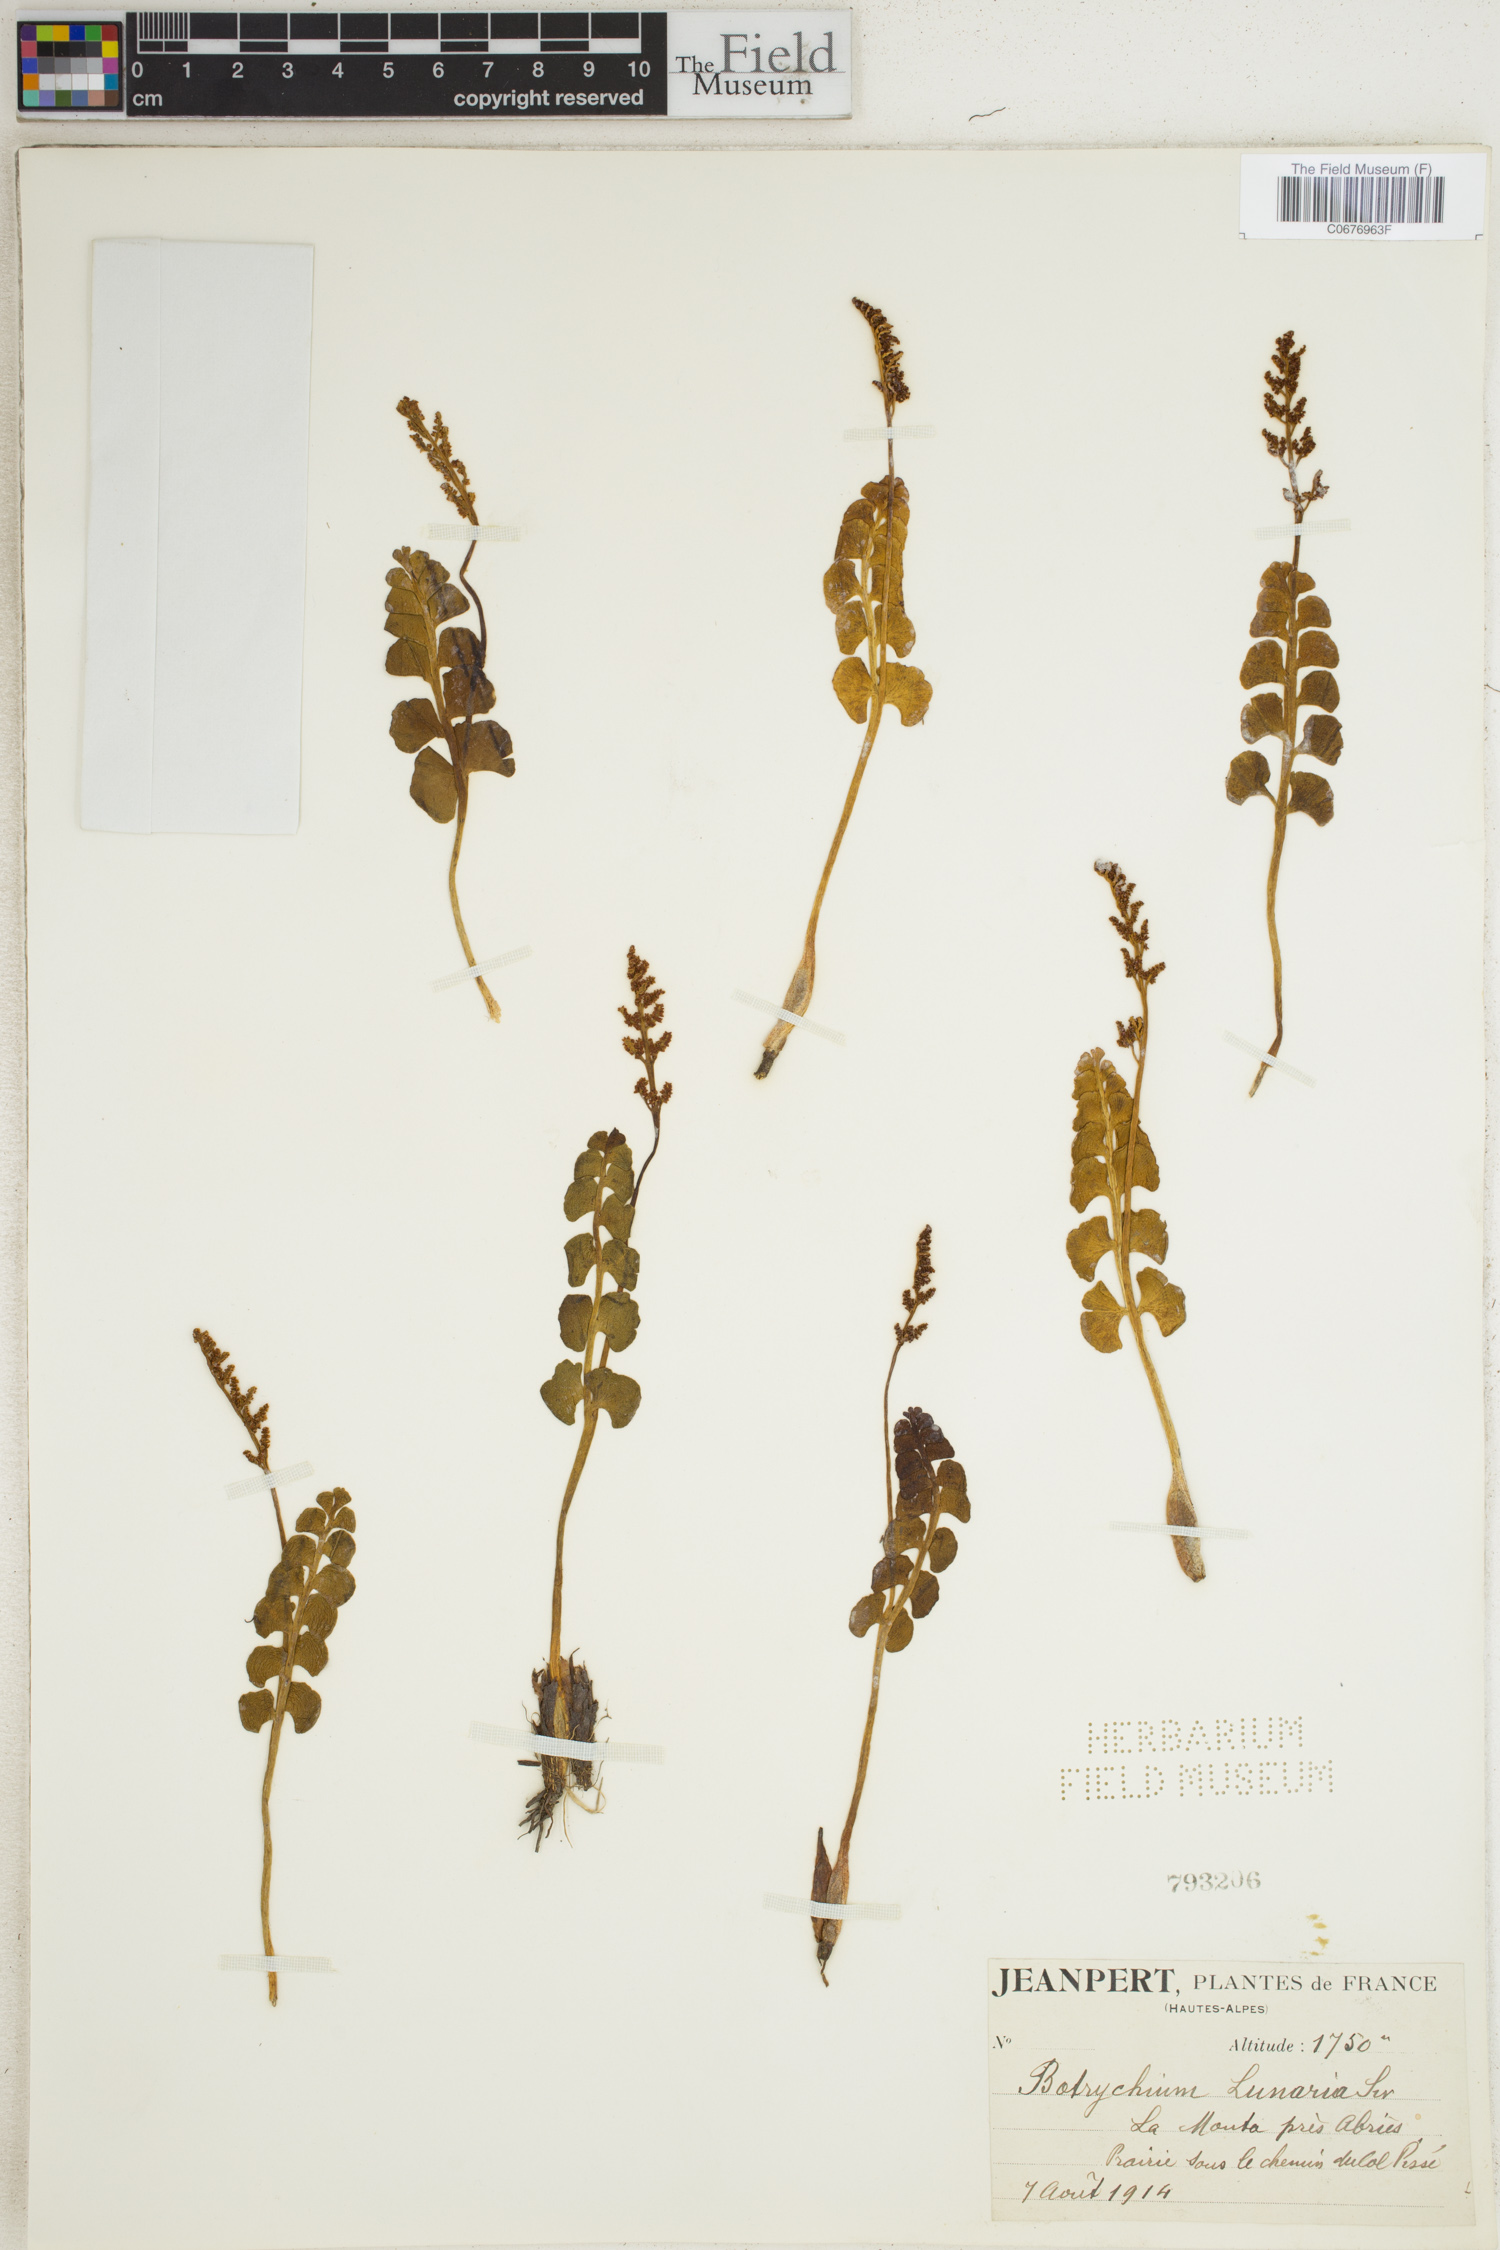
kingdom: Plantae
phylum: Tracheophyta
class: Polypodiopsida
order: Ophioglossales
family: Ophioglossaceae
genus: Botrychium
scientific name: Botrychium lunaria
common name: Moonwort
